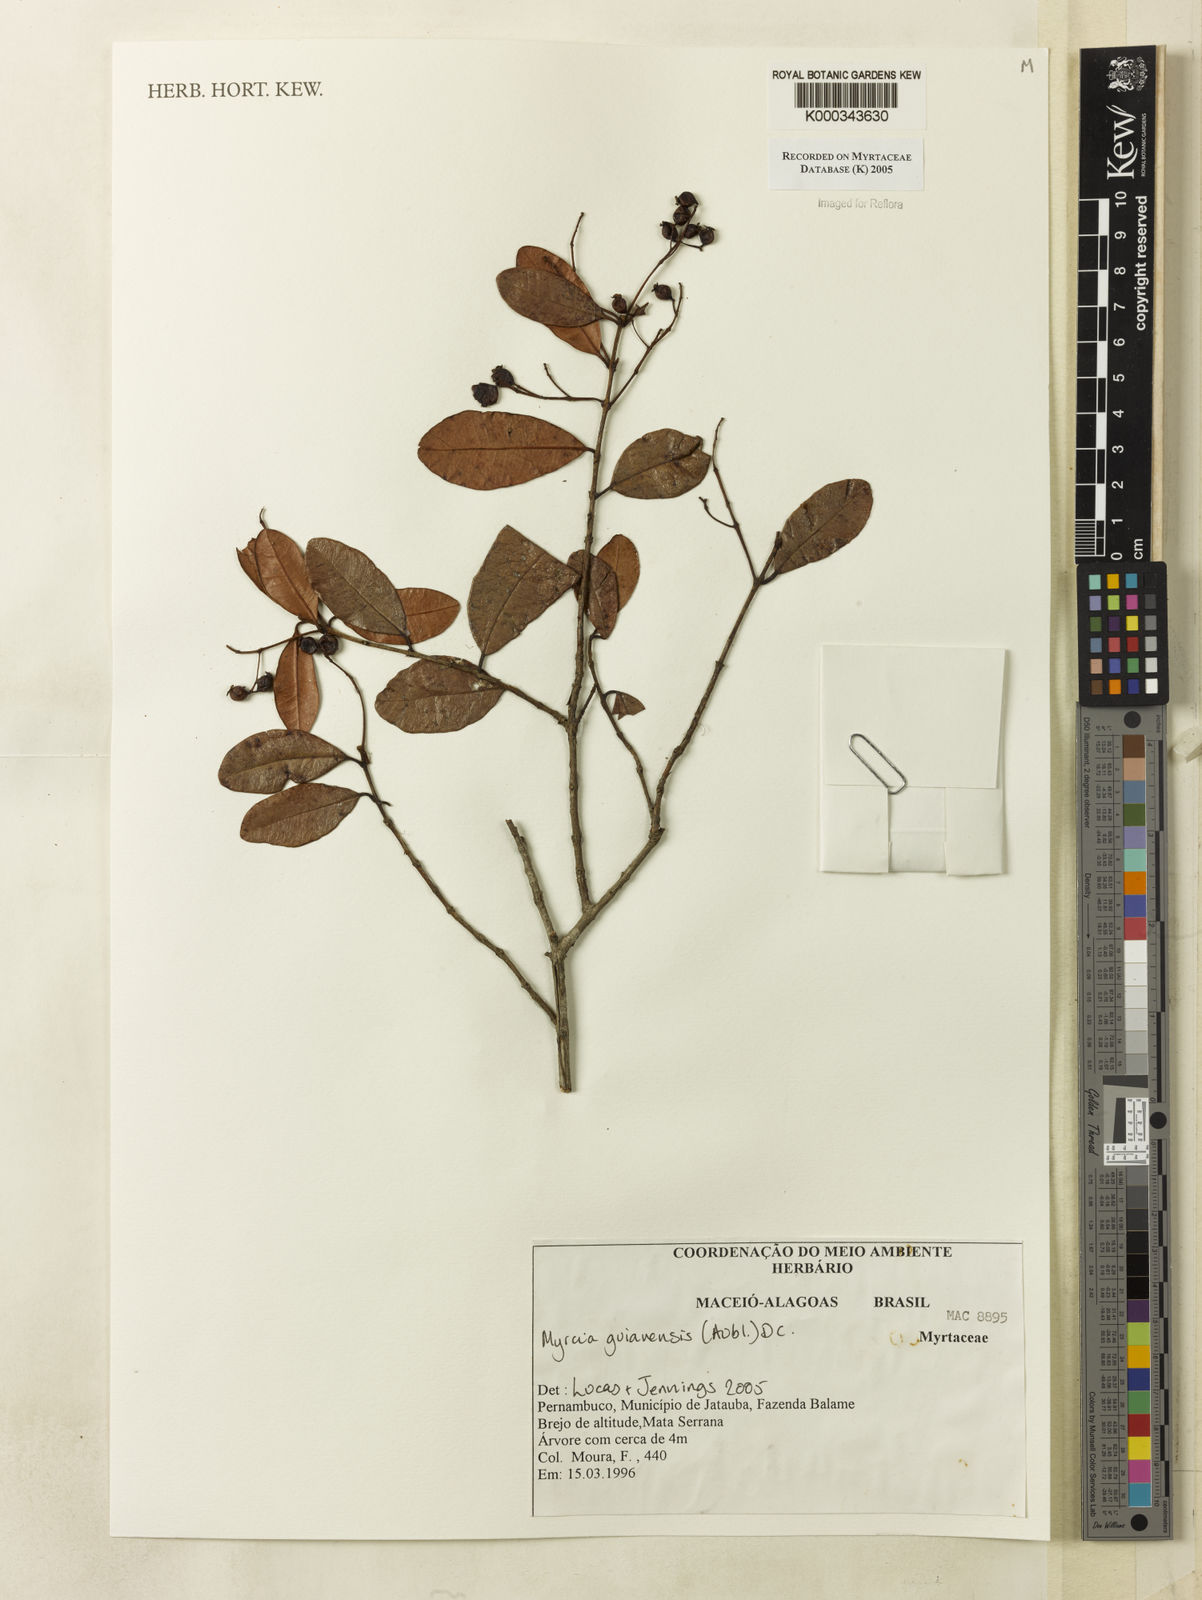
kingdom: Plantae
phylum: Tracheophyta
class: Magnoliopsida
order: Myrtales
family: Myrtaceae
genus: Myrcia
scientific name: Myrcia guianensis
